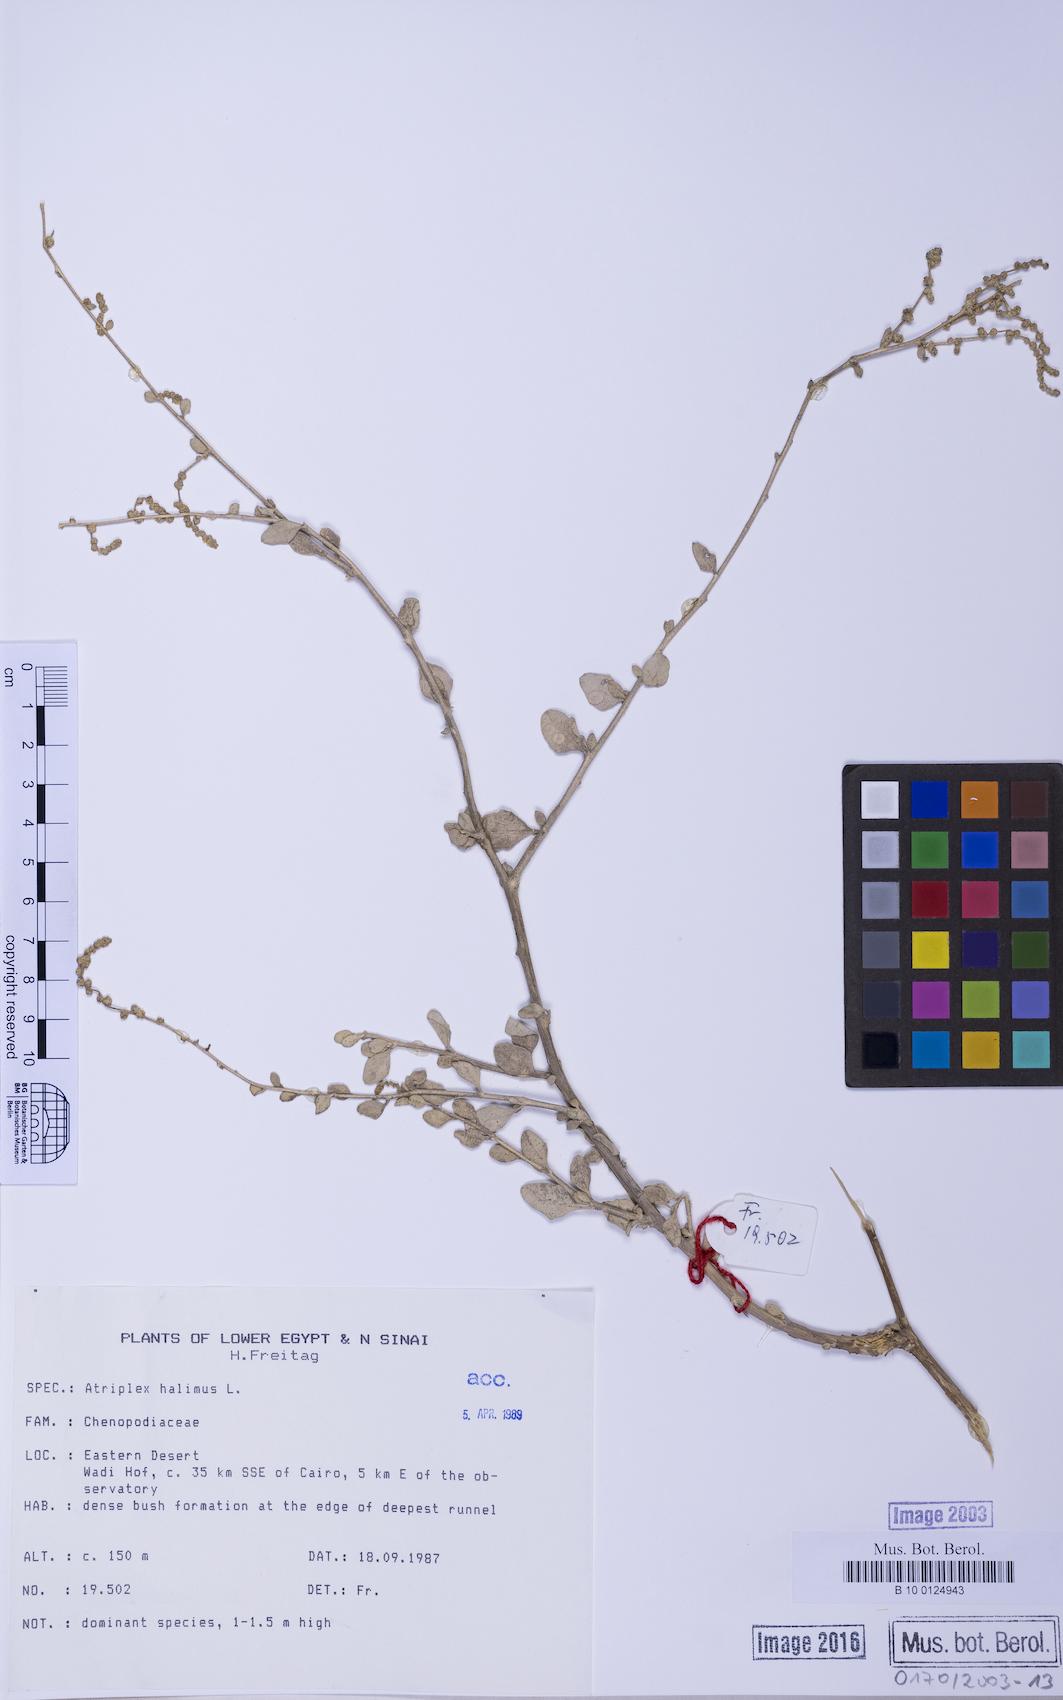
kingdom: Plantae
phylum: Tracheophyta
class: Magnoliopsida
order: Caryophyllales
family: Amaranthaceae
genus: Atriplex
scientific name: Atriplex halimus
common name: Shrubby orache
